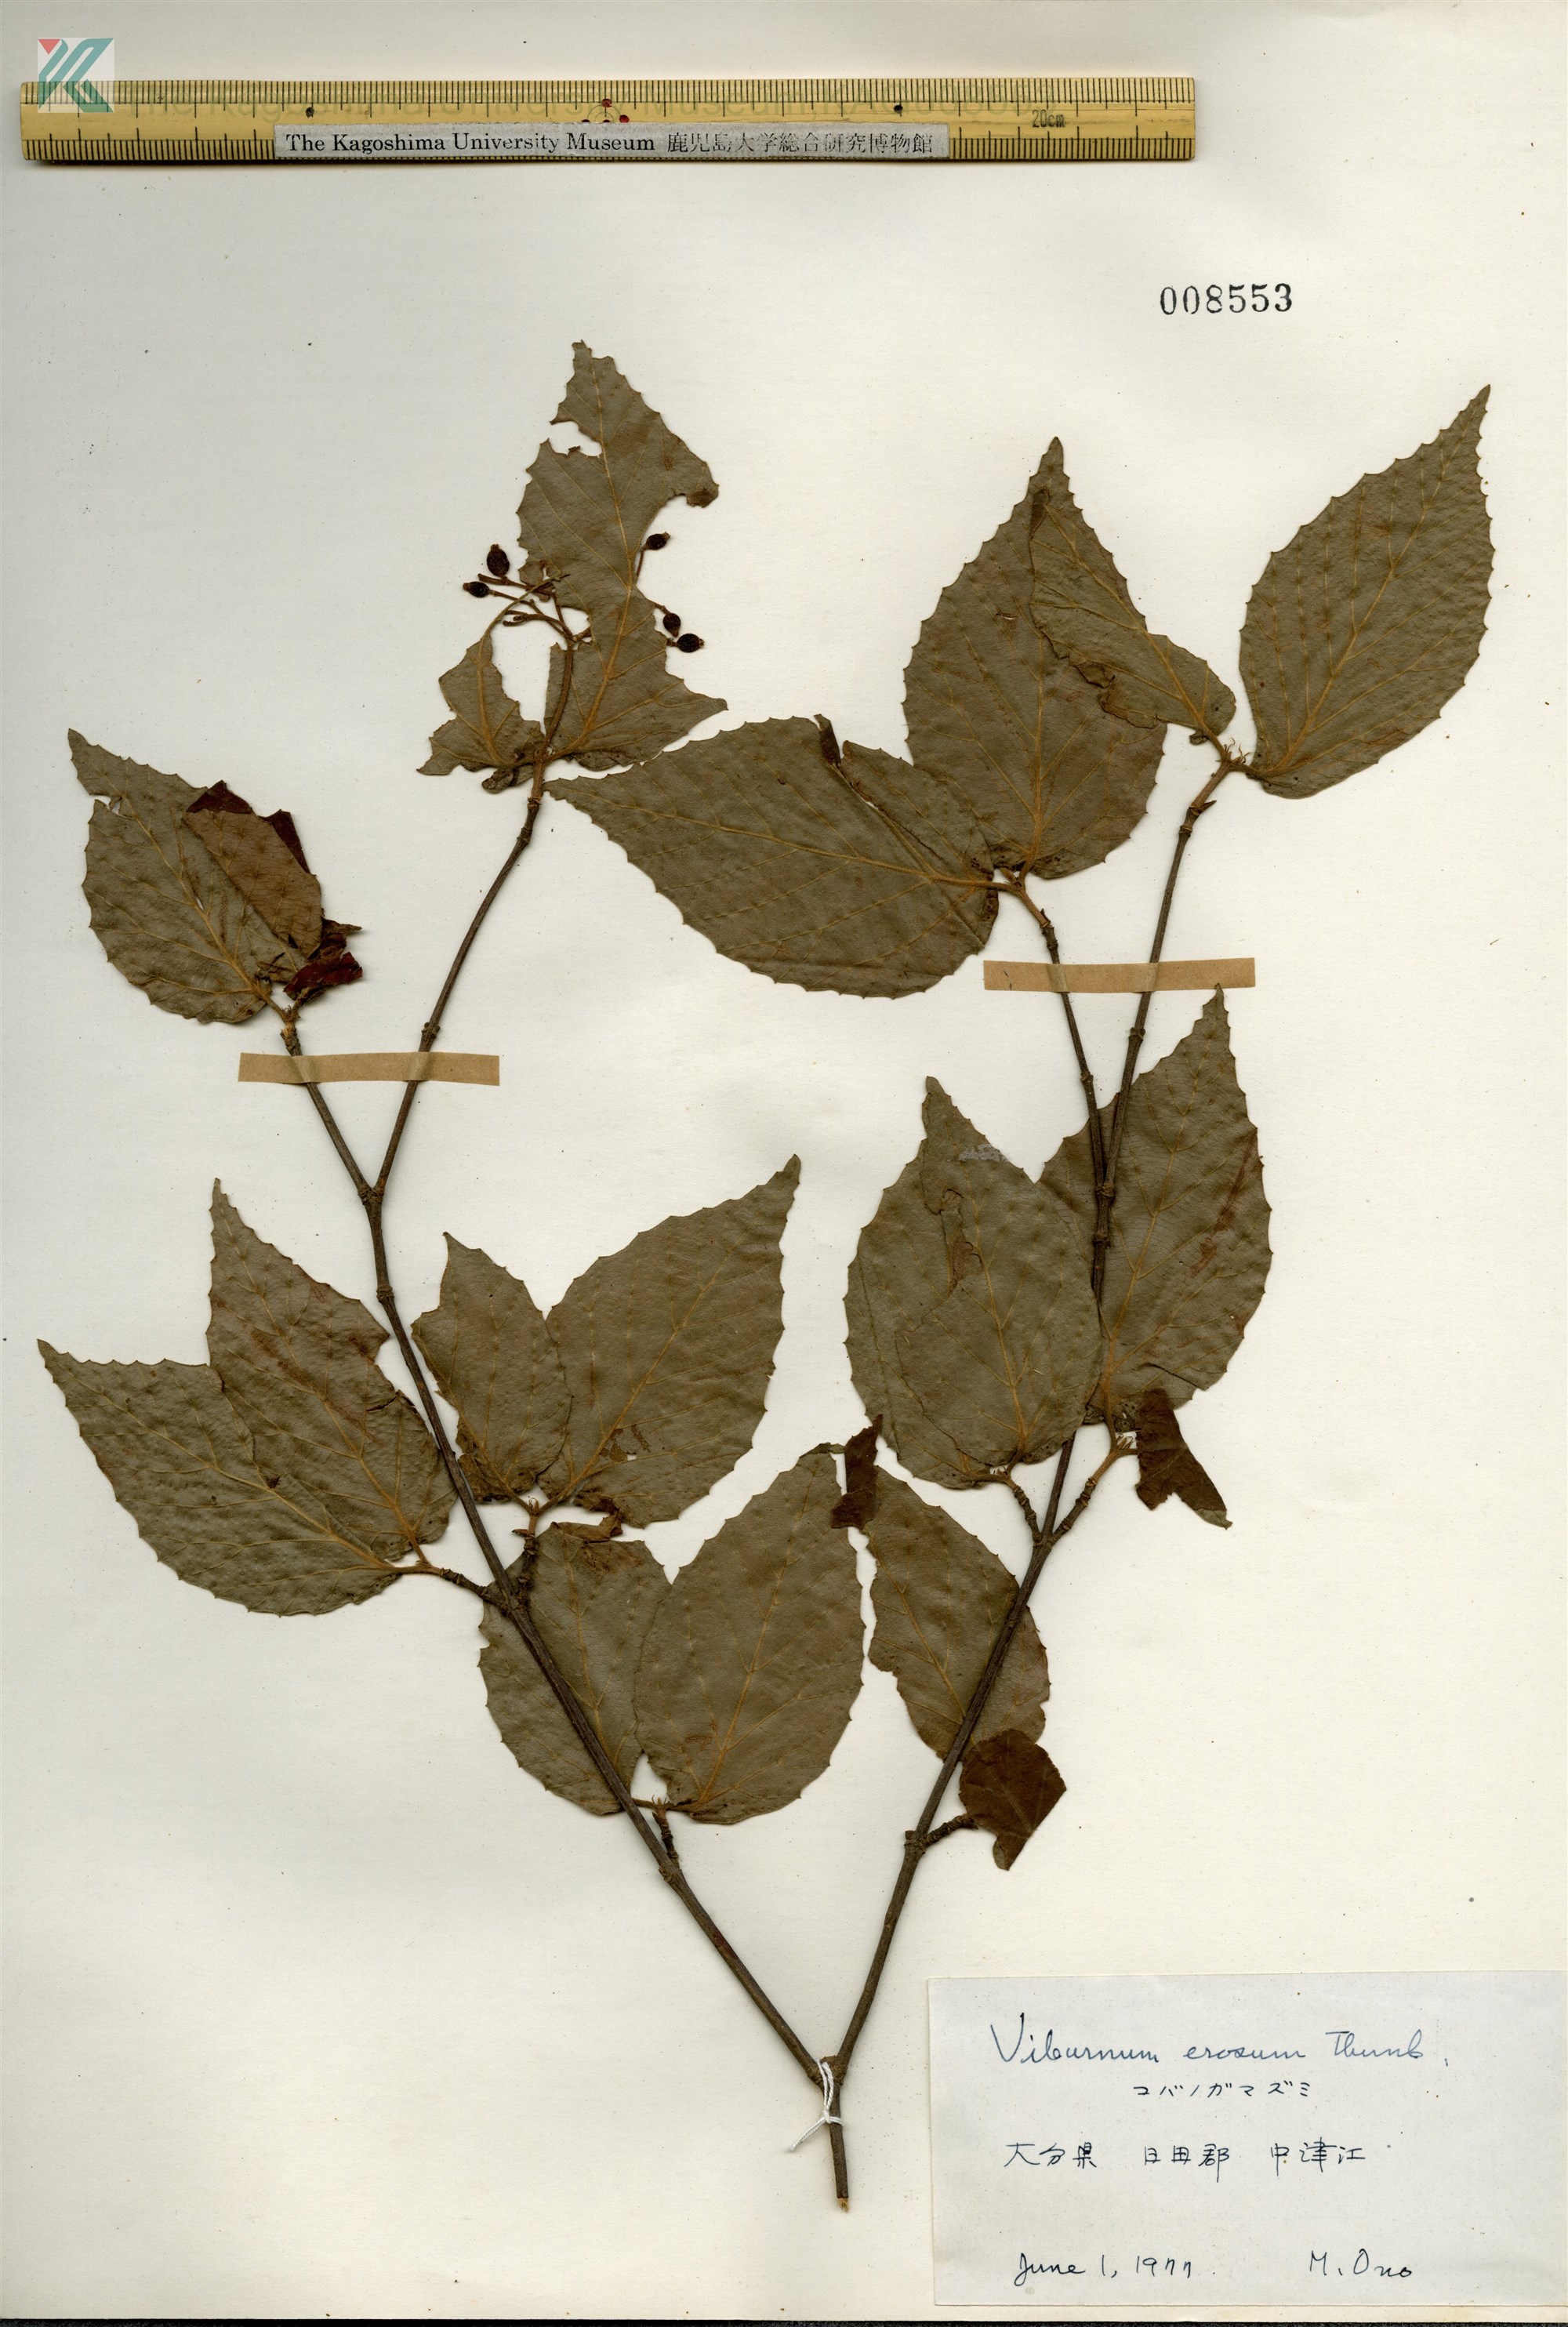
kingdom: Plantae
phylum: Tracheophyta
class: Magnoliopsida
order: Dipsacales
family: Viburnaceae
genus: Viburnum
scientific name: Viburnum erosum
